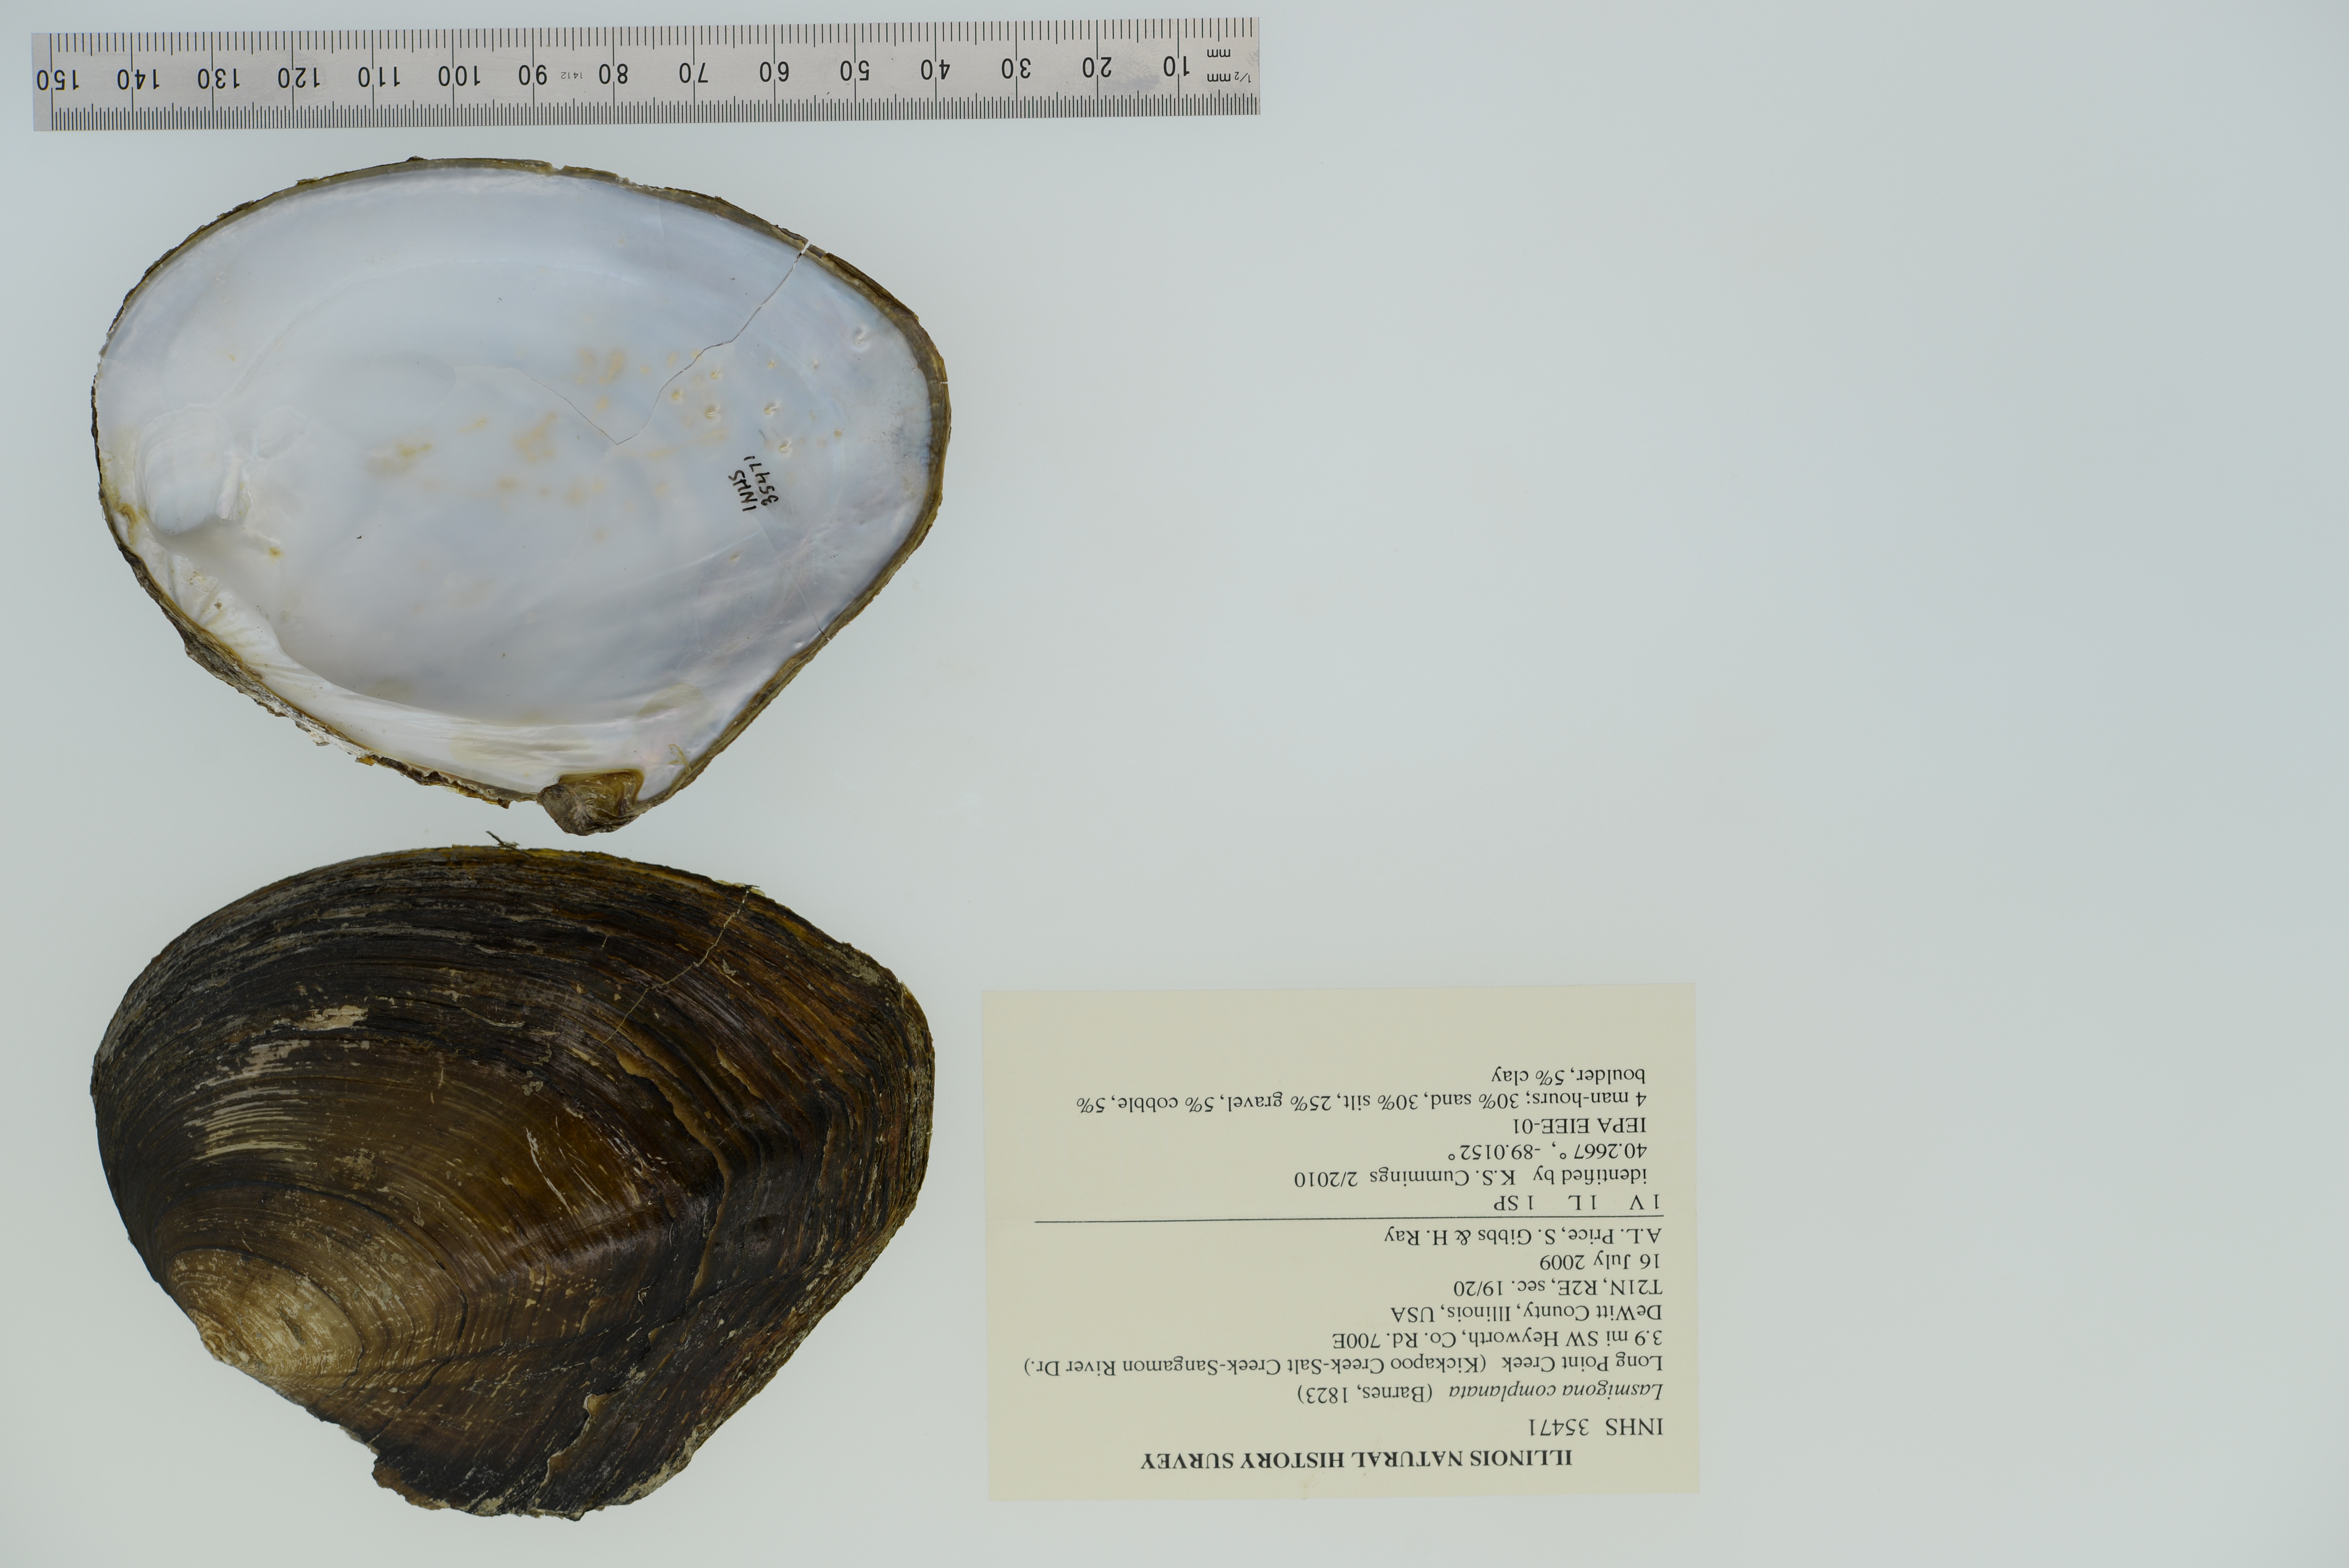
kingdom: Animalia
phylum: Mollusca
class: Bivalvia
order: Unionida
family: Unionidae
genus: Lasmigona
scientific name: Lasmigona complanata
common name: White heelsplitter
